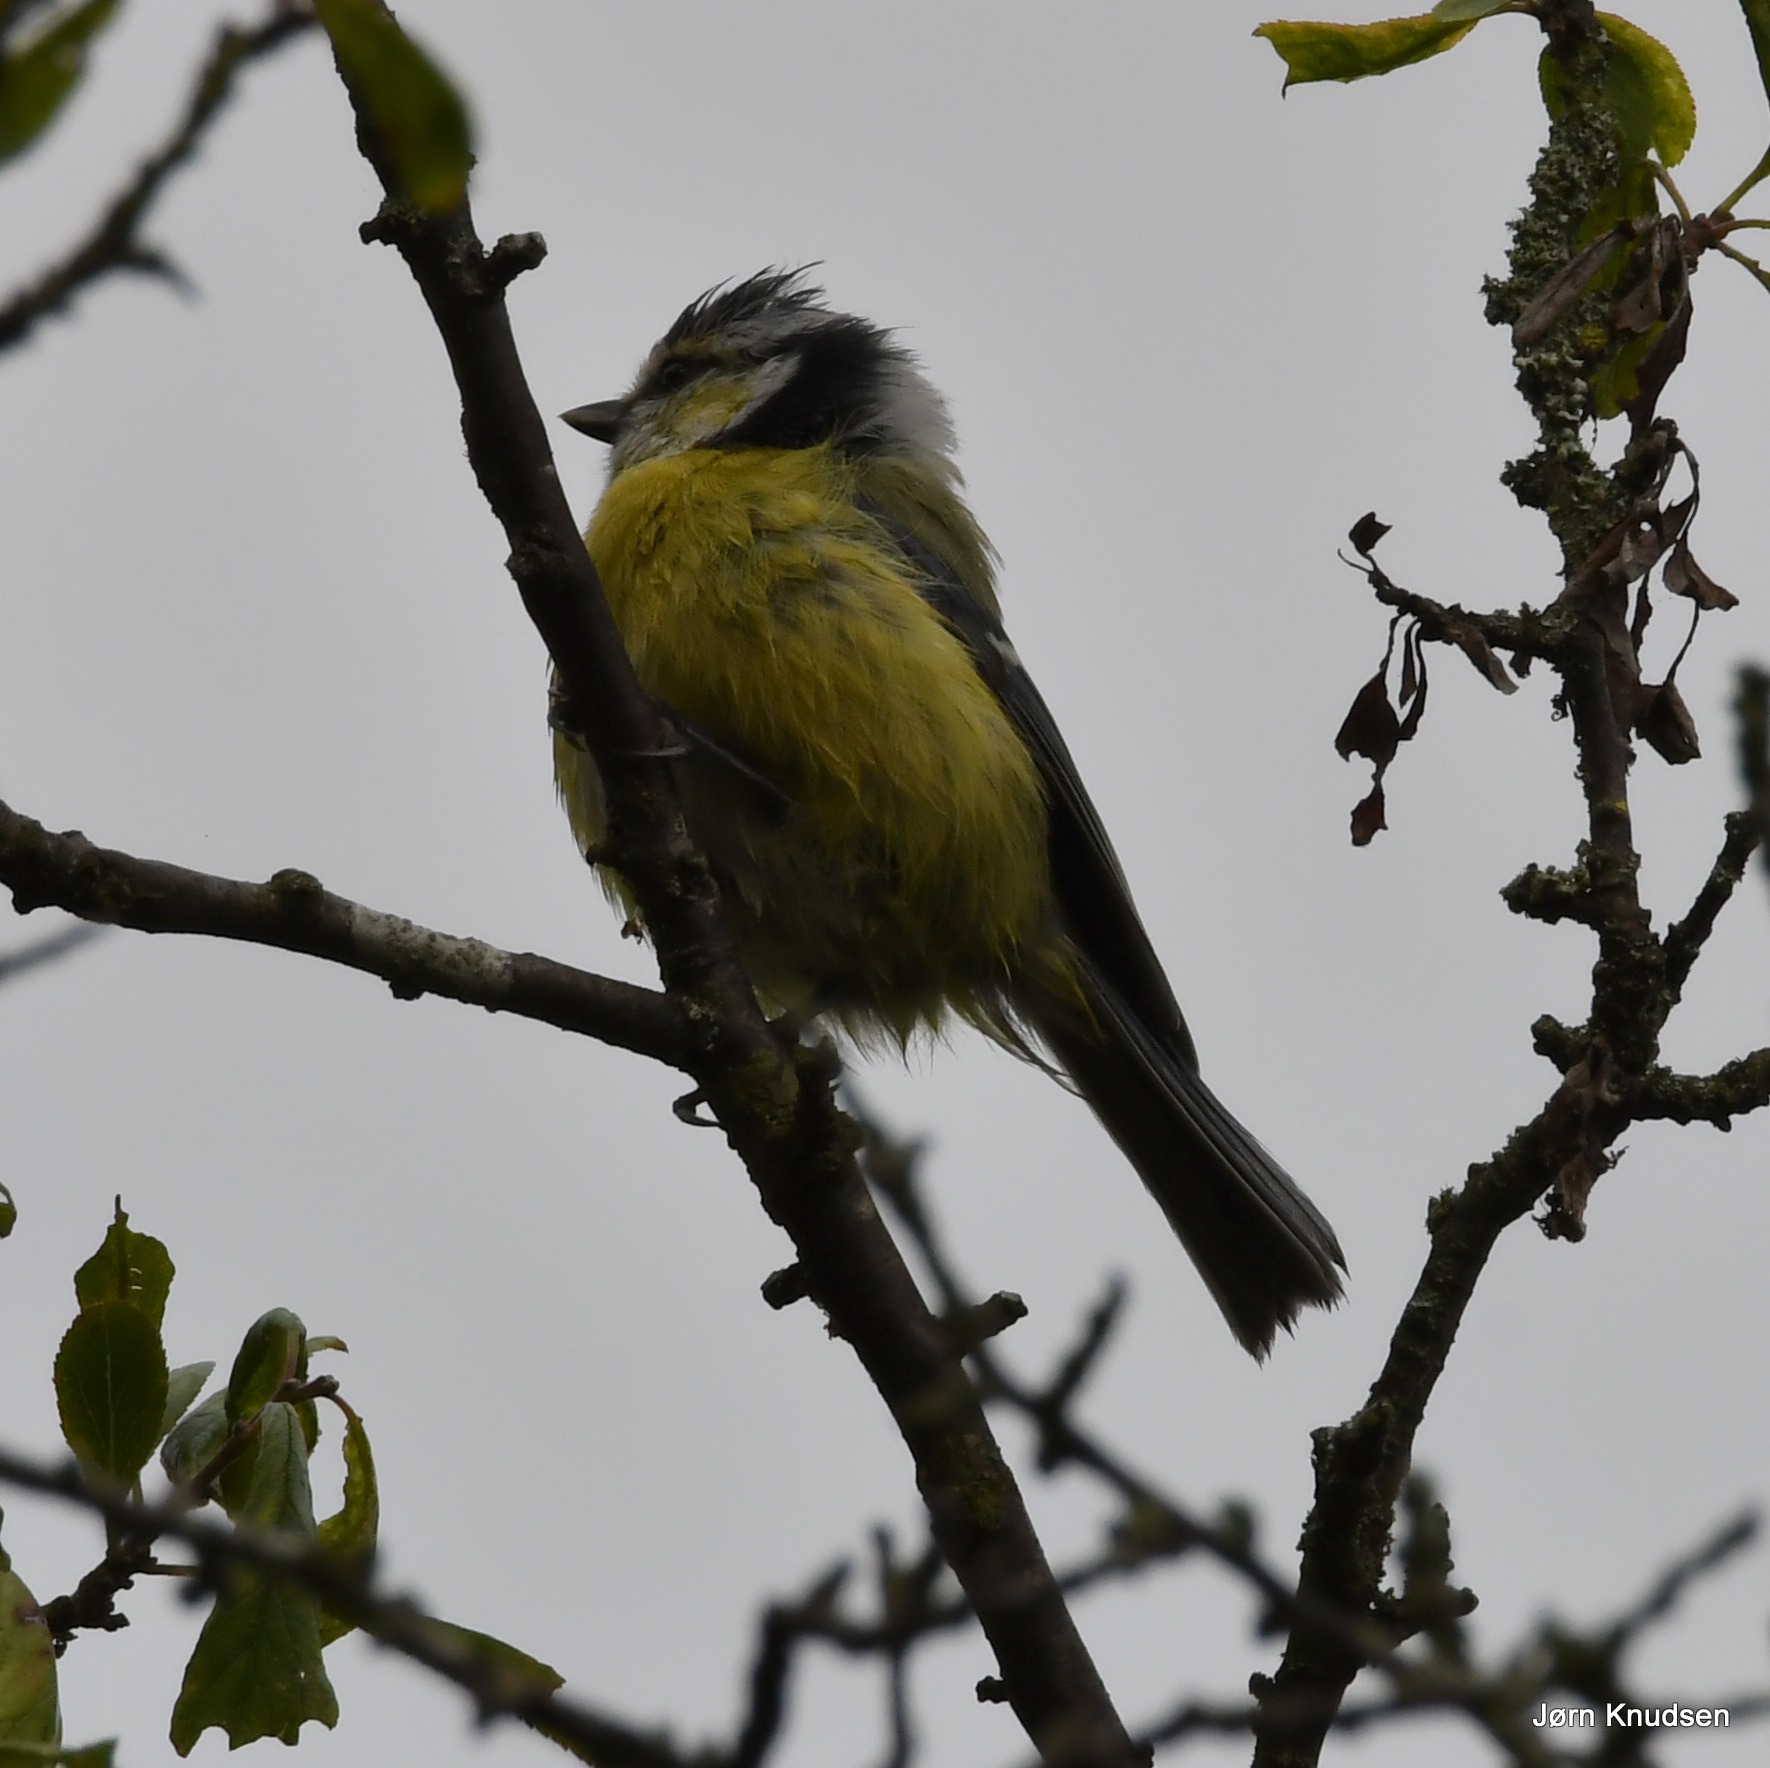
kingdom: Animalia
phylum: Chordata
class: Aves
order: Passeriformes
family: Paridae
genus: Cyanistes
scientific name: Cyanistes caeruleus
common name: Blåmejse
